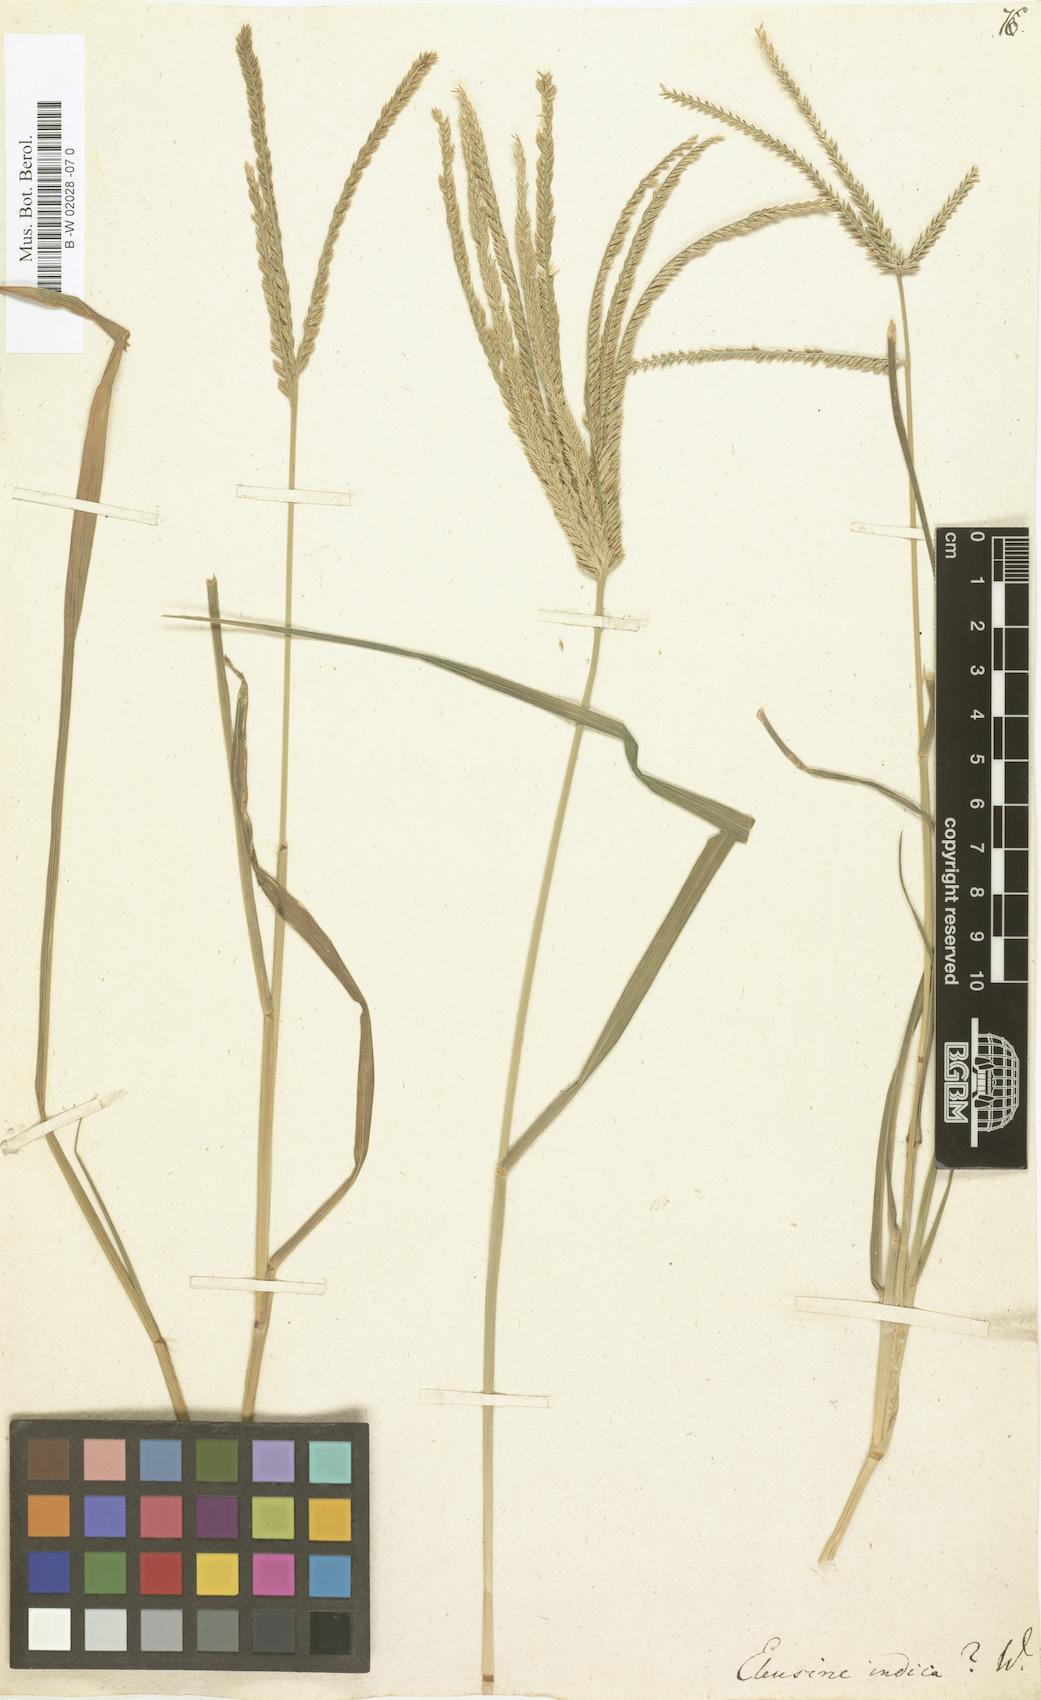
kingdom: Plantae
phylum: Tracheophyta
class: Liliopsida
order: Poales
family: Poaceae
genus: Eleusine
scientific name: Eleusine indica
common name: Yard-grass
